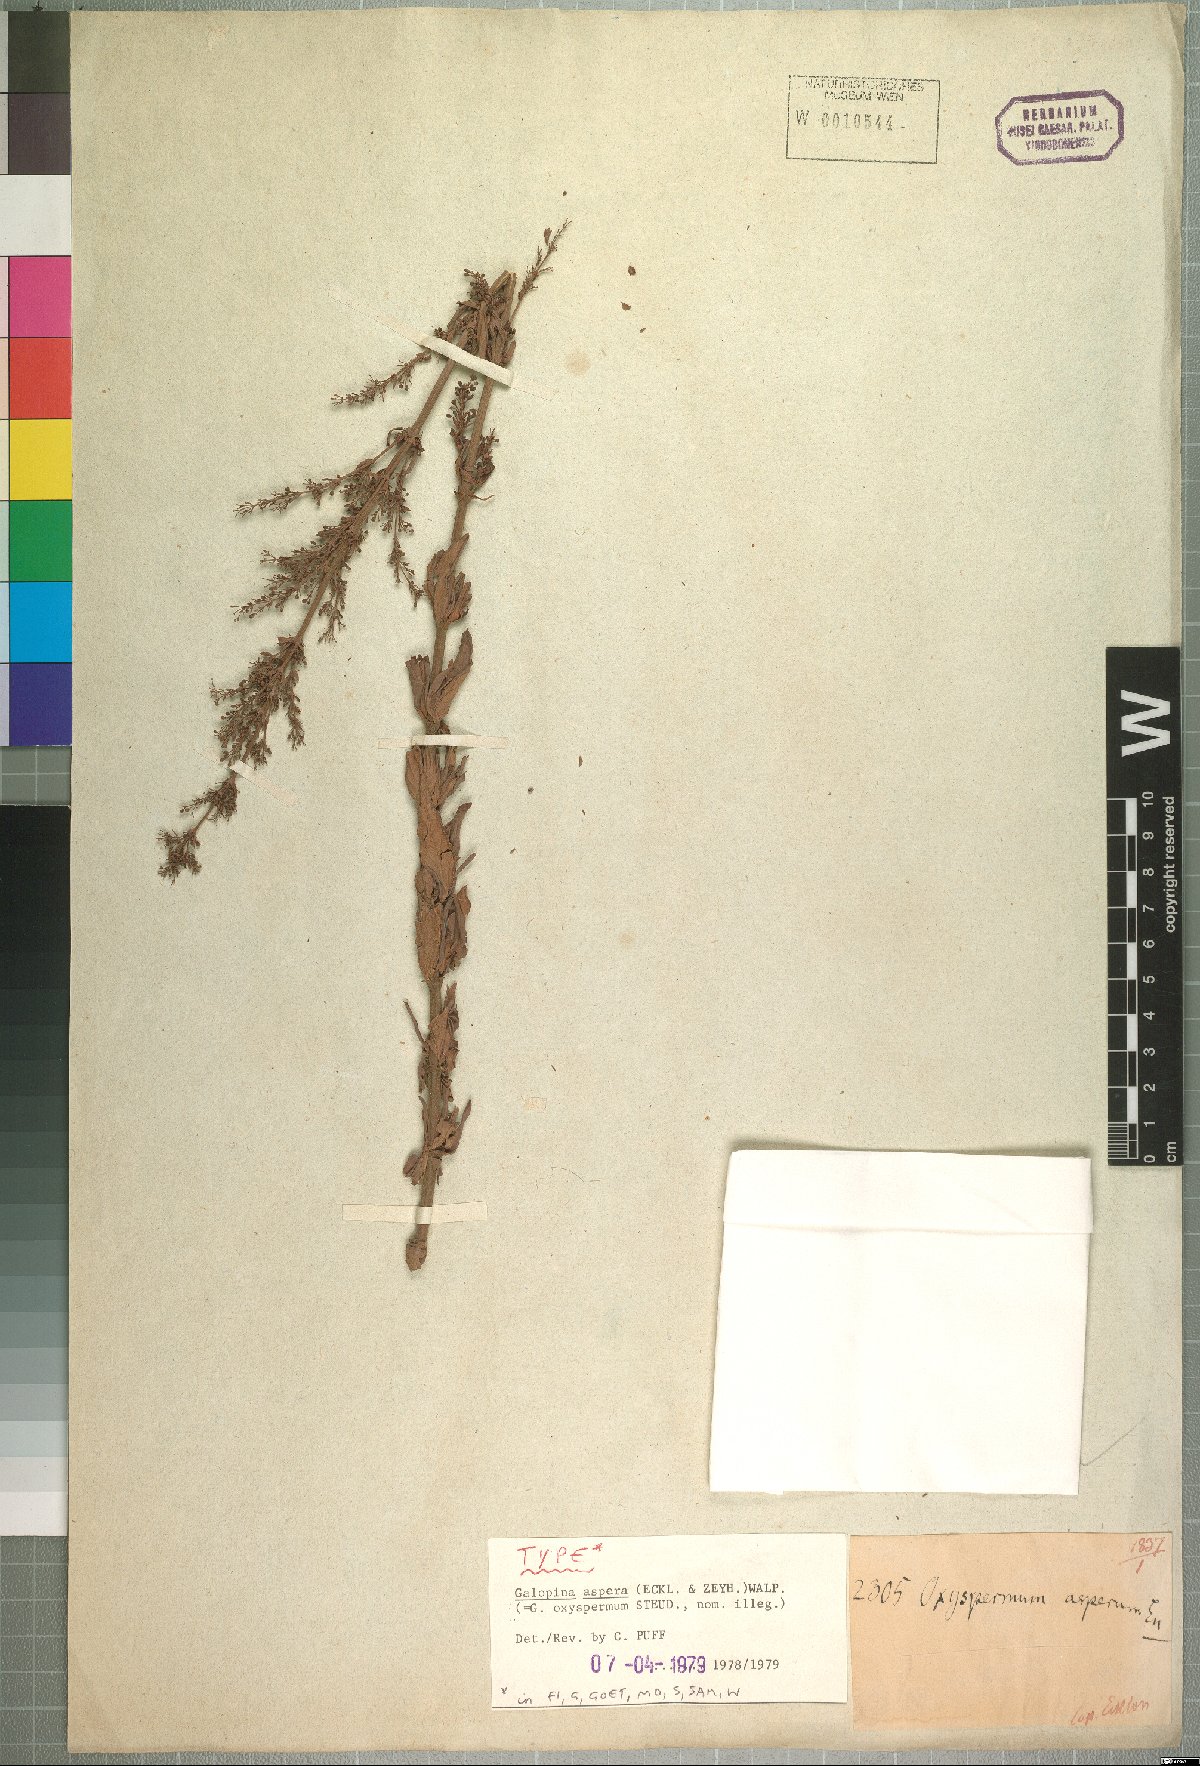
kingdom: Plantae
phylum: Tracheophyta
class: Magnoliopsida
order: Gentianales
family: Rubiaceae
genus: Galopina
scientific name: Galopina aspera
